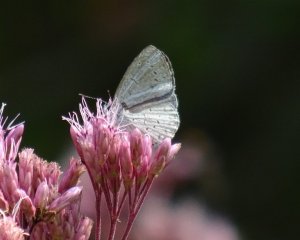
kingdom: Animalia
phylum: Arthropoda
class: Insecta
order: Lepidoptera
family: Lycaenidae
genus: Cyaniris
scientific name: Cyaniris neglecta
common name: Summer Azure
